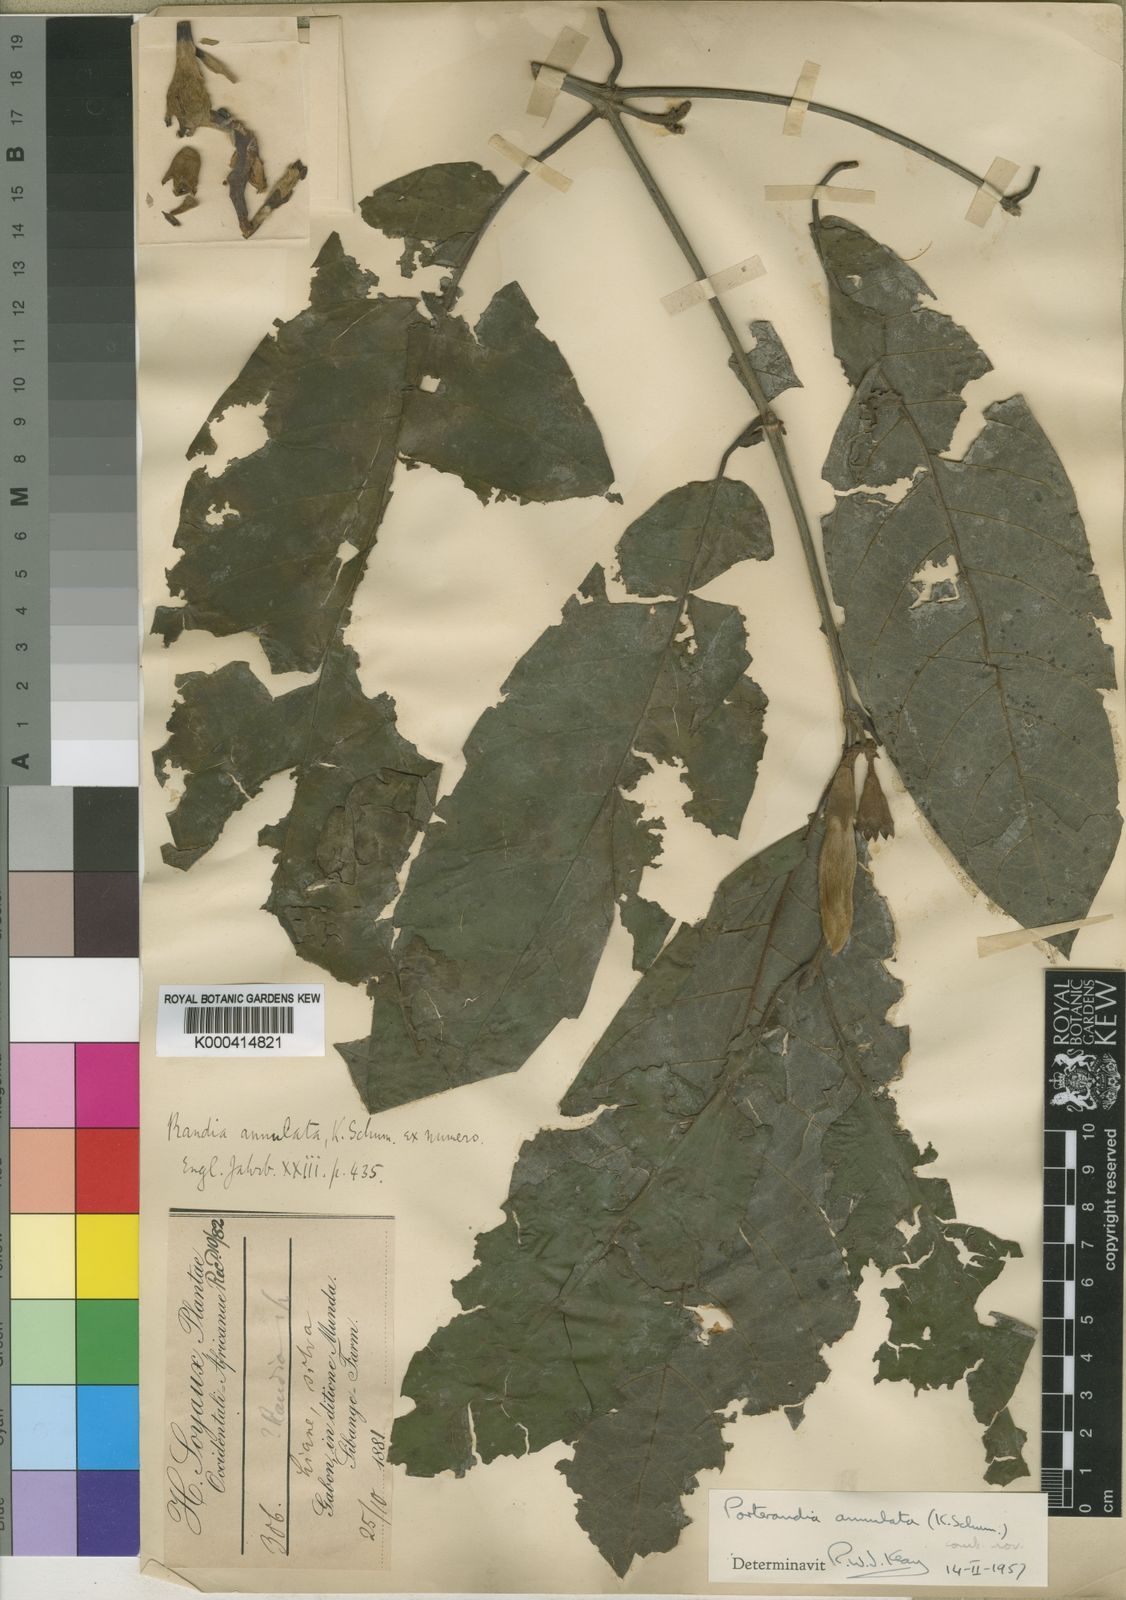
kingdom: Plantae
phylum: Tracheophyta
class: Magnoliopsida
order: Gentianales
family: Rubiaceae
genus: Aoranthe
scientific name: Aoranthe annulata
